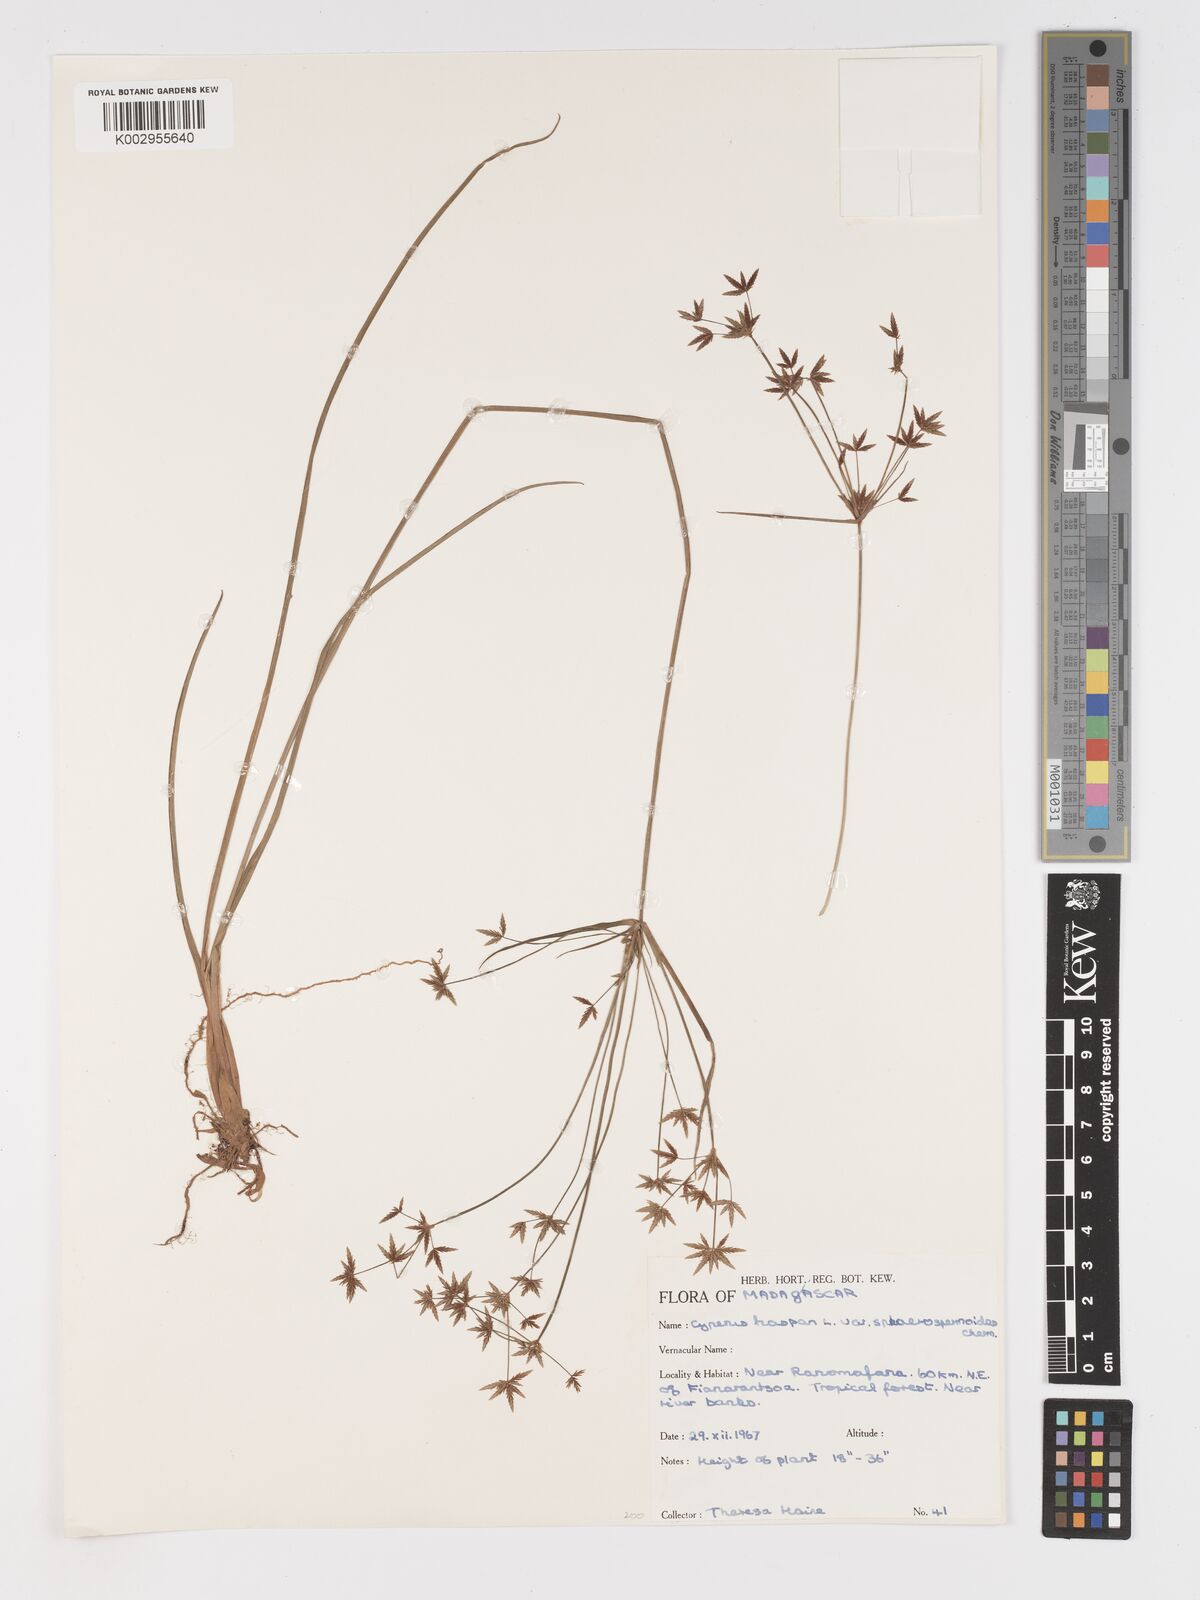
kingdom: Plantae
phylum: Tracheophyta
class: Liliopsida
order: Poales
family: Cyperaceae
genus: Cyperus
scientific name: Cyperus haspan
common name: Haspan flatsedge
